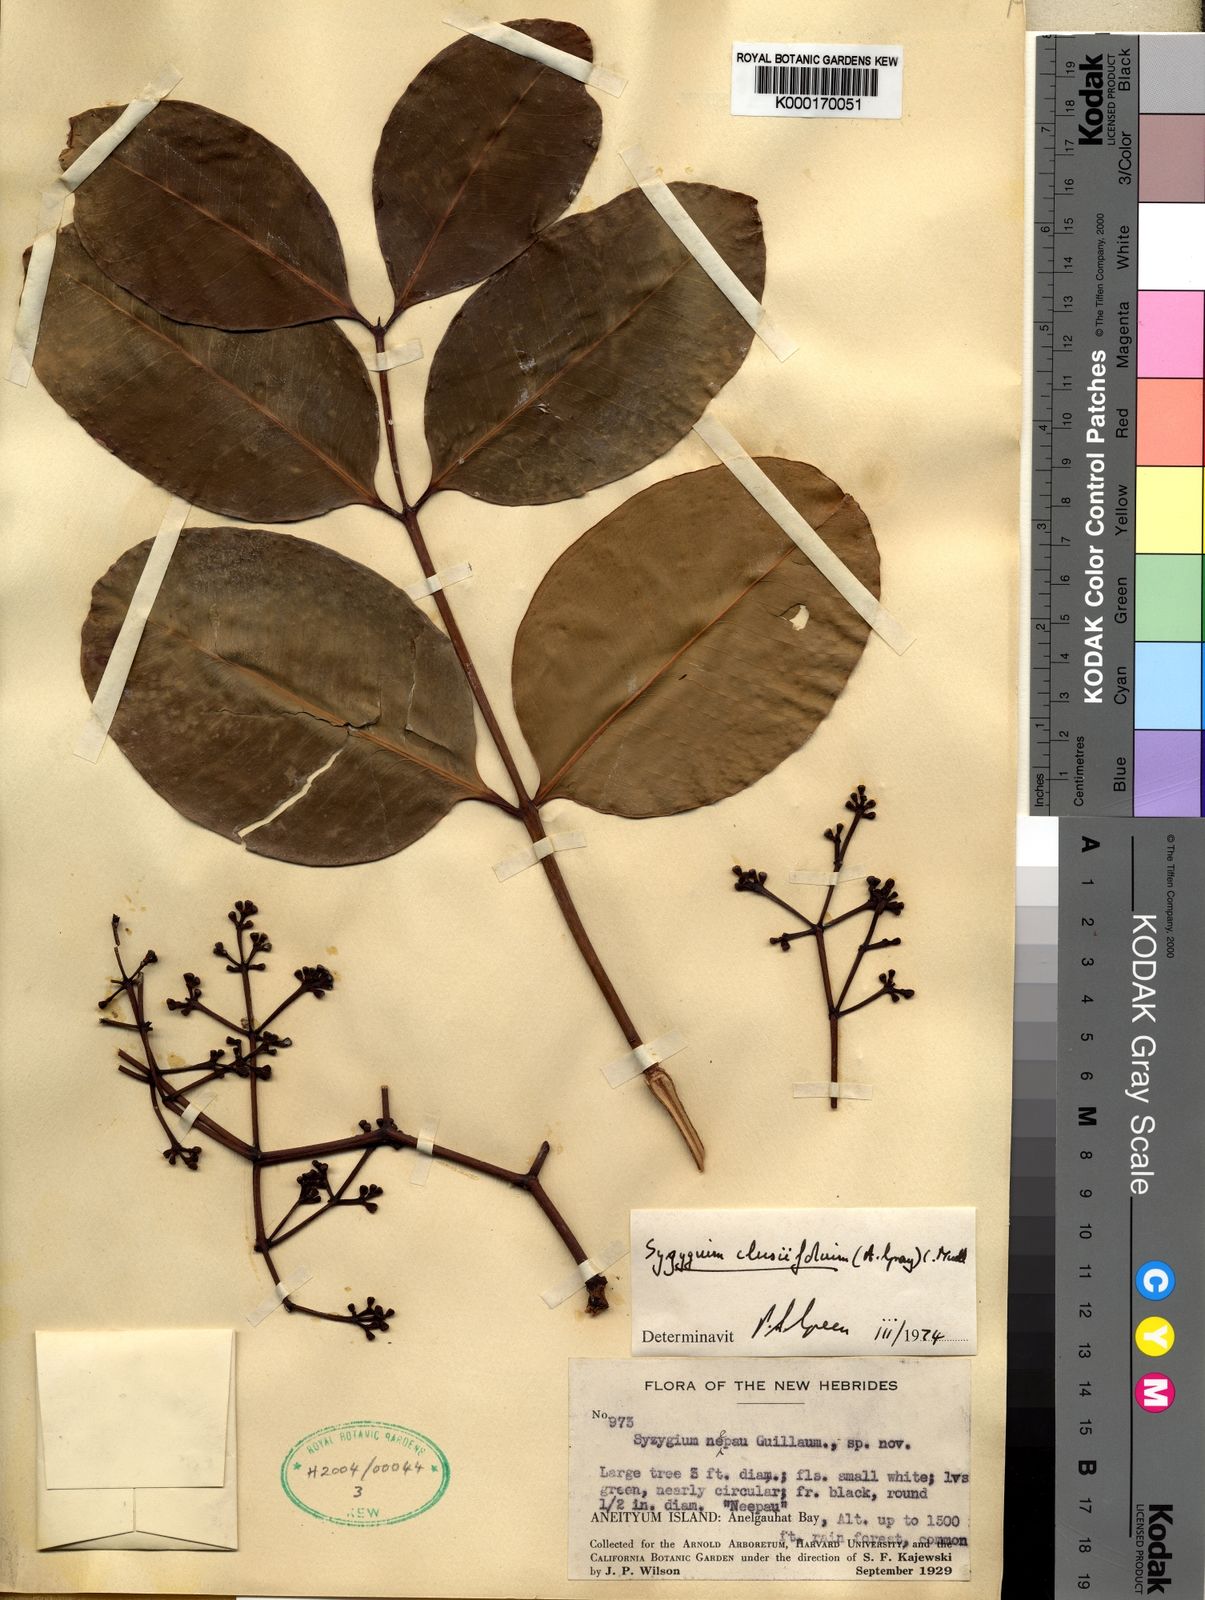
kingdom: Plantae
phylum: Tracheophyta
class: Magnoliopsida
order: Myrtales
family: Myrtaceae
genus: Syzygium
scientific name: Syzygium
